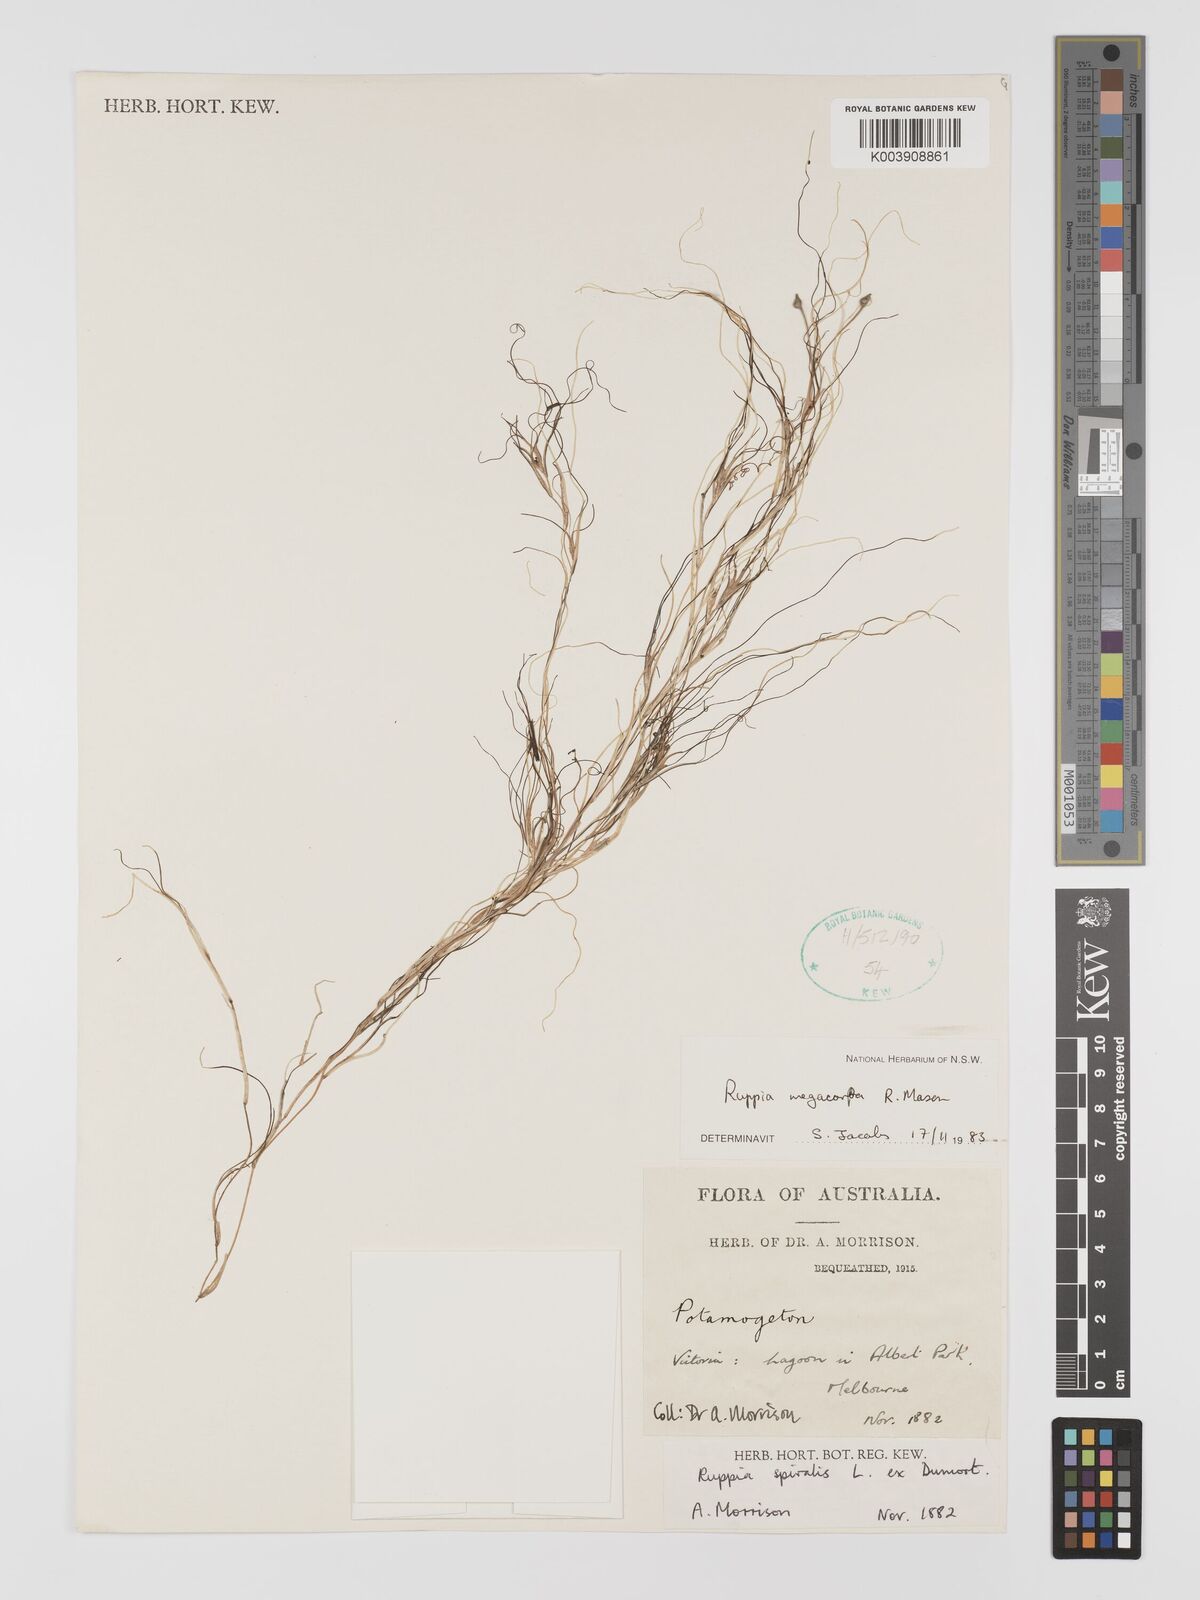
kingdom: Plantae
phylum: Tracheophyta
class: Liliopsida
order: Alismatales
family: Ruppiaceae
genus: Ruppia
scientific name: Ruppia megacarpa
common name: Large-fruit seatassel
